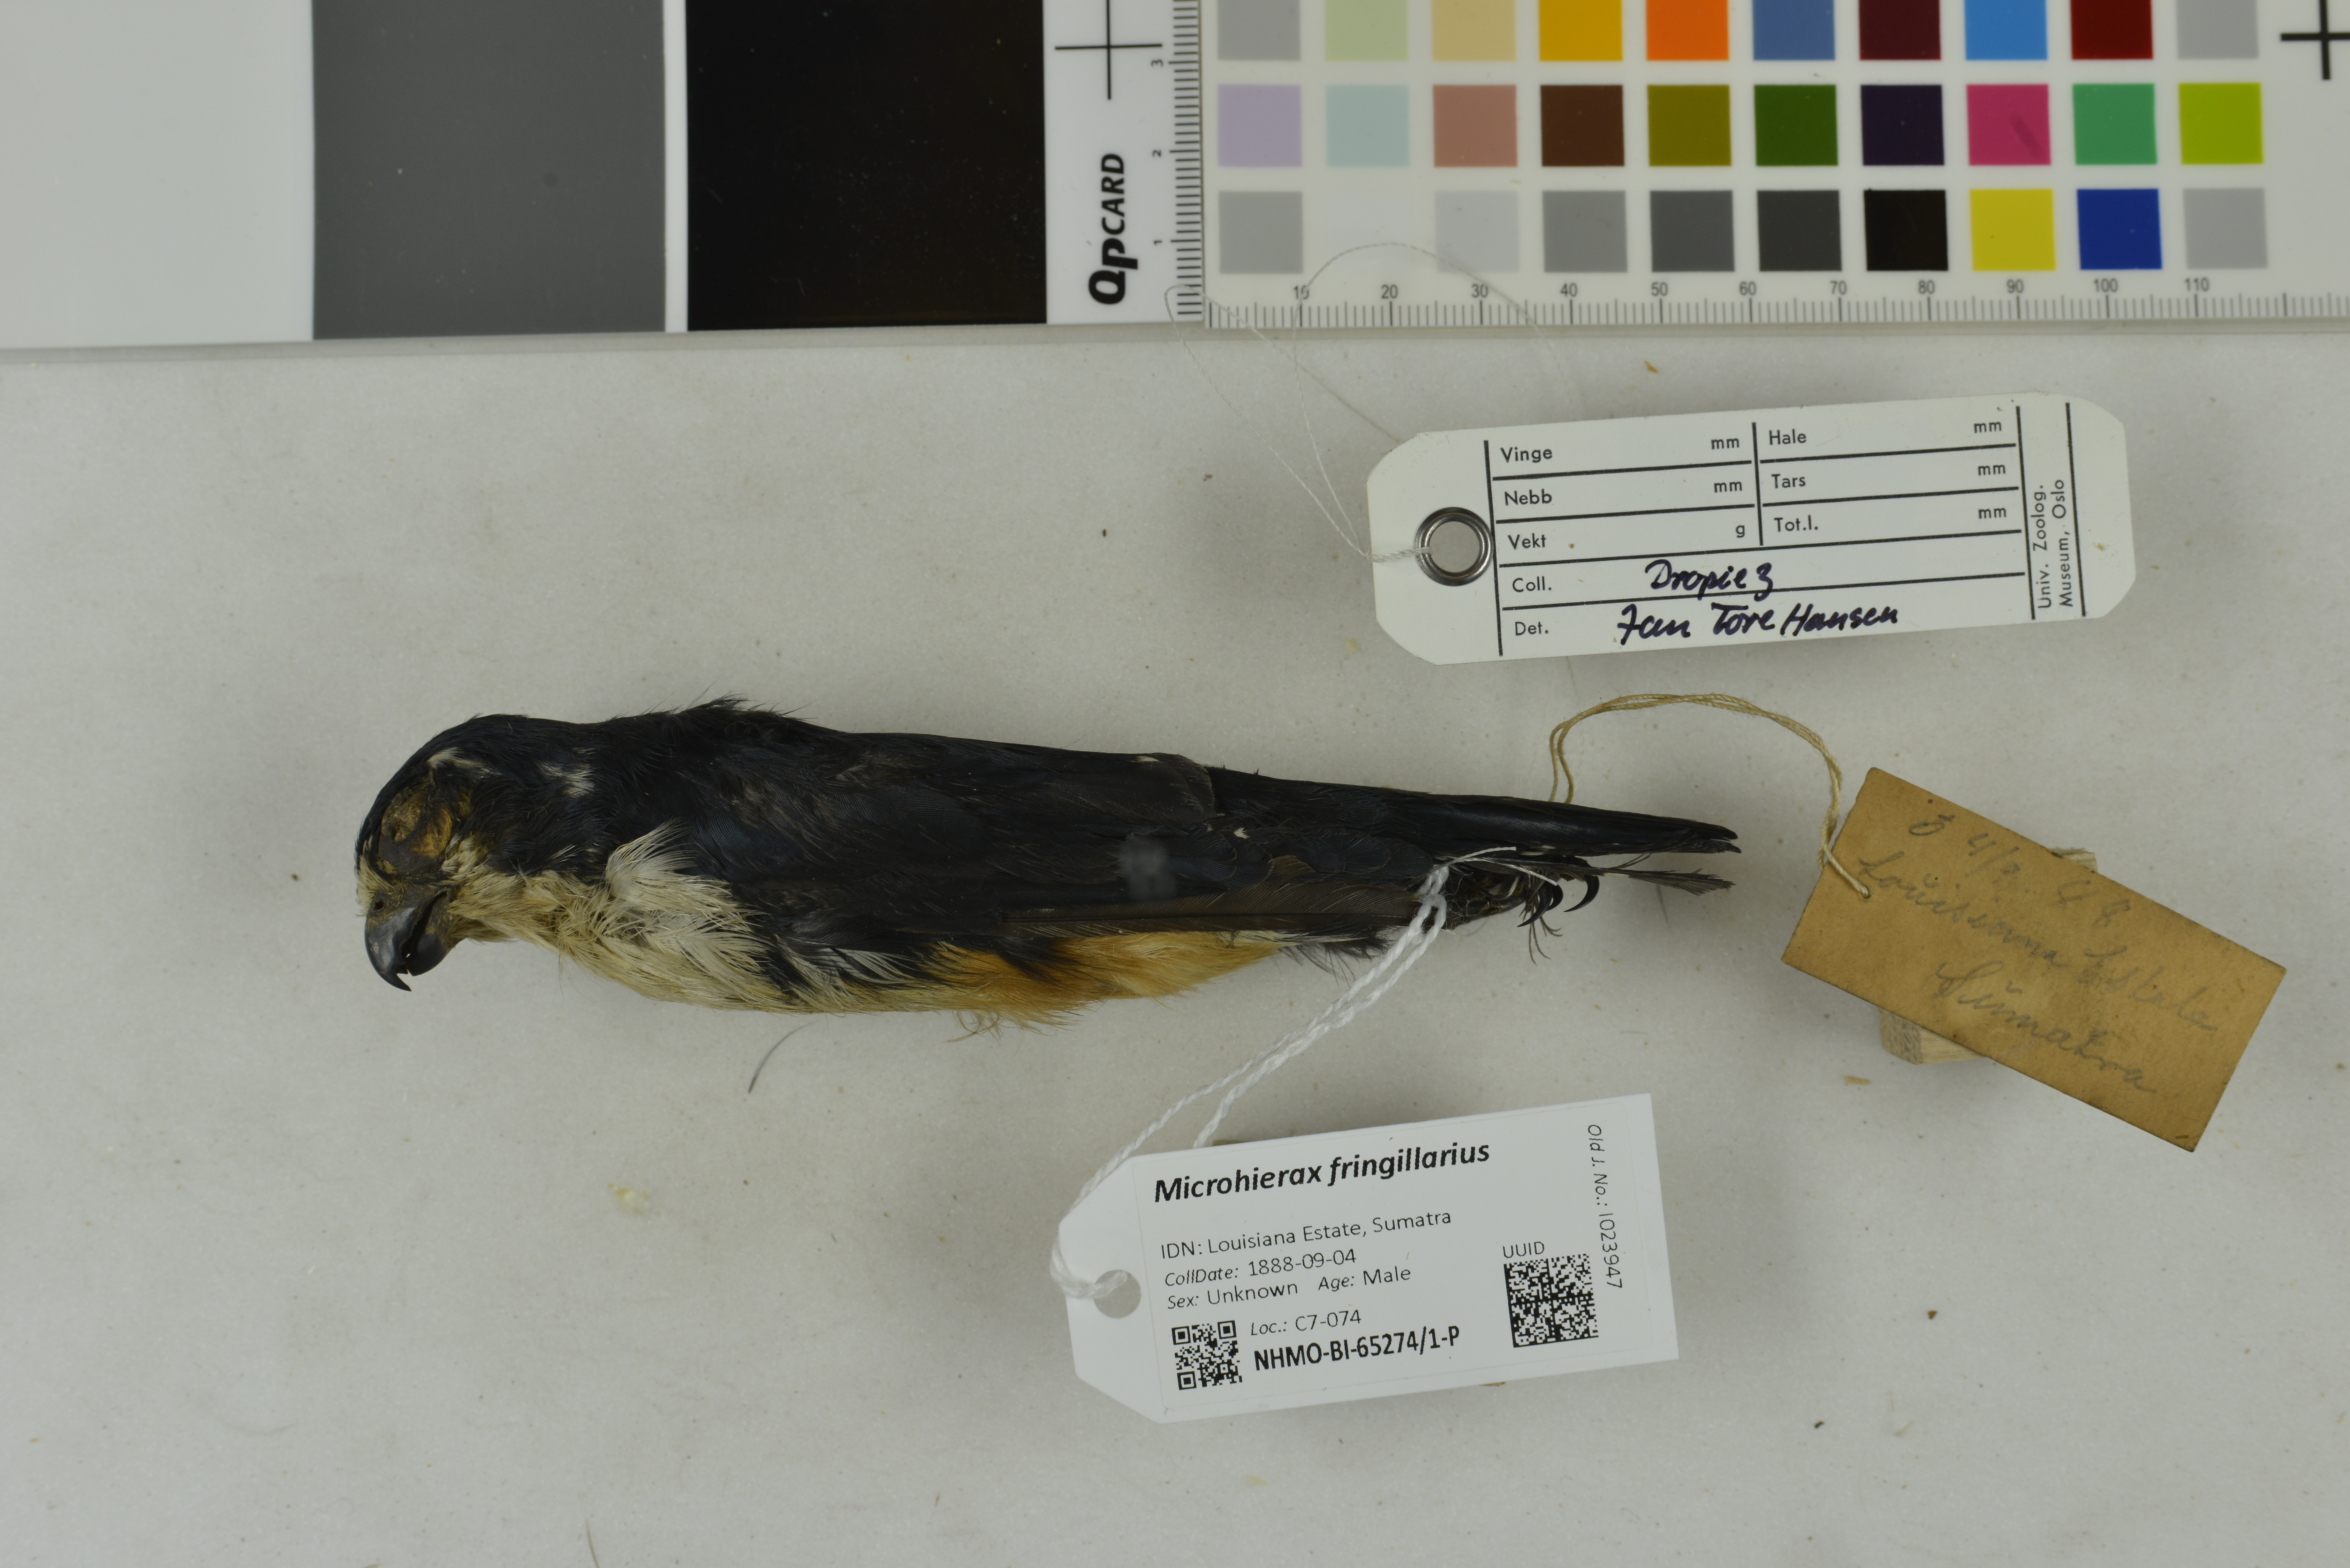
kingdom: Animalia
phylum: Chordata
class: Aves
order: Falconiformes
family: Falconidae
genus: Microhierax
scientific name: Microhierax fringillarius
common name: Black-thighed falconet
